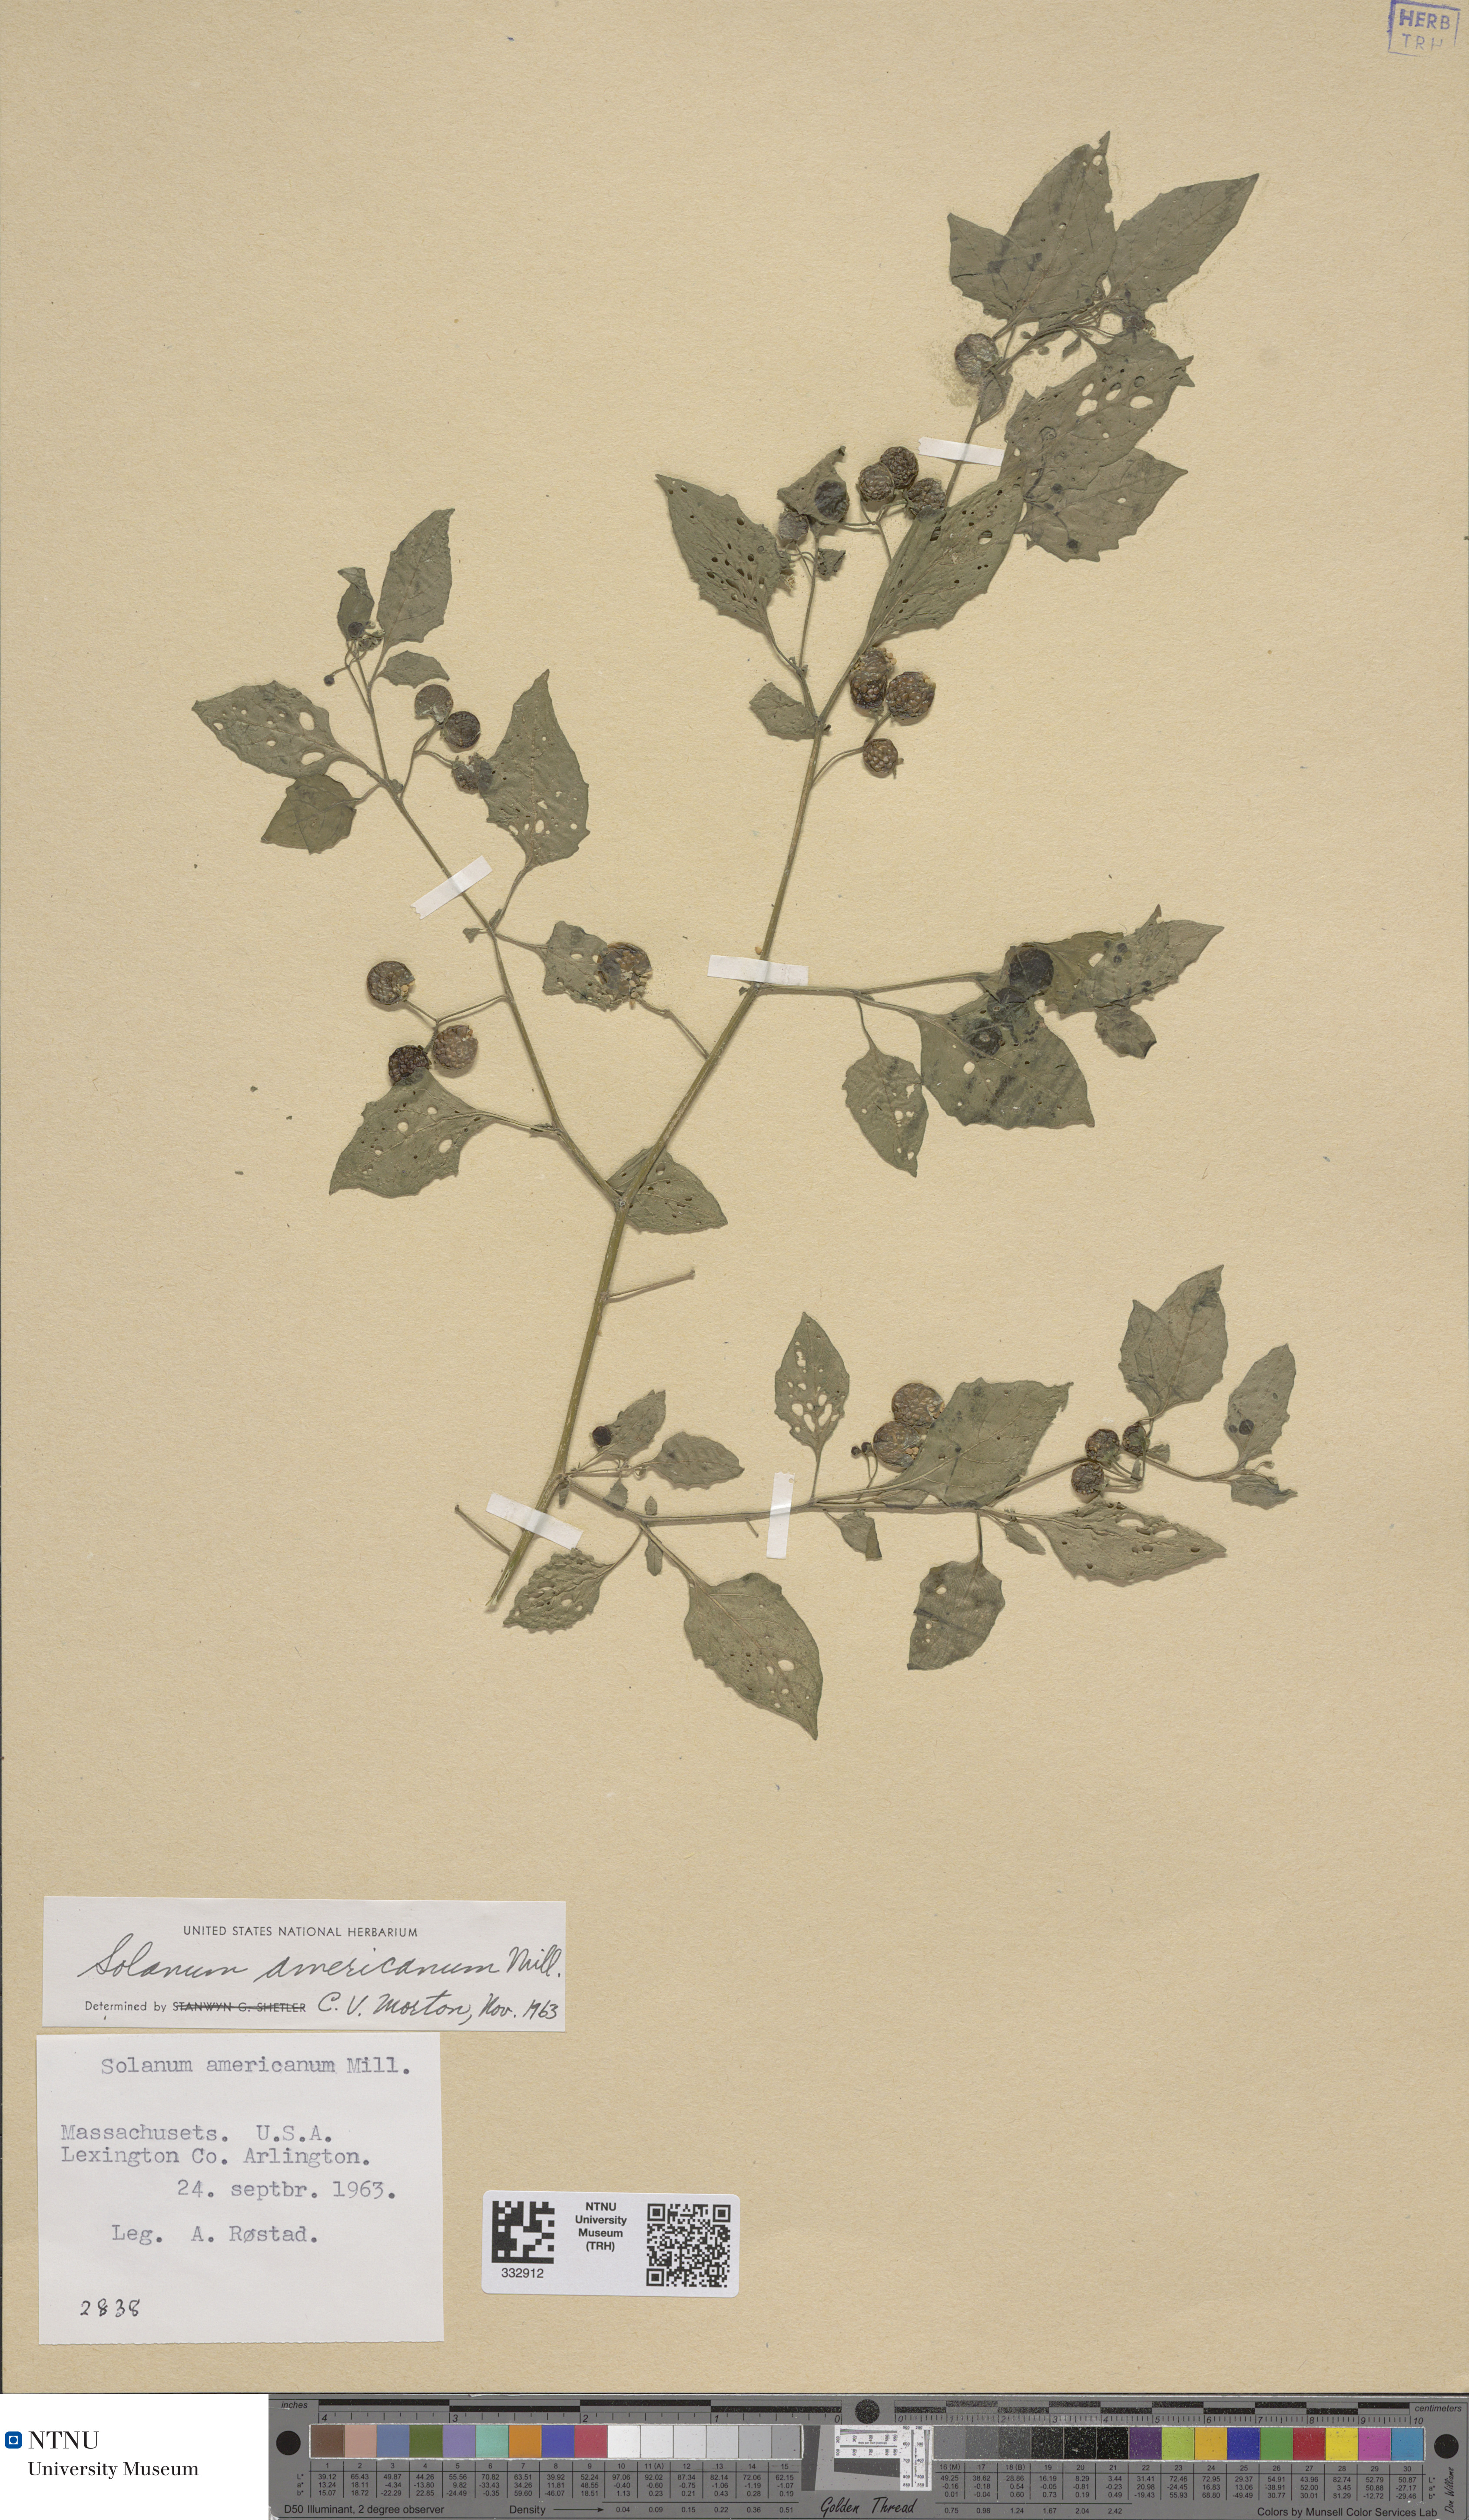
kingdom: Plantae
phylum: Tracheophyta
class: Magnoliopsida
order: Solanales
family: Solanaceae
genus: Solanum
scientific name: Solanum americanum
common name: American black nightshade
